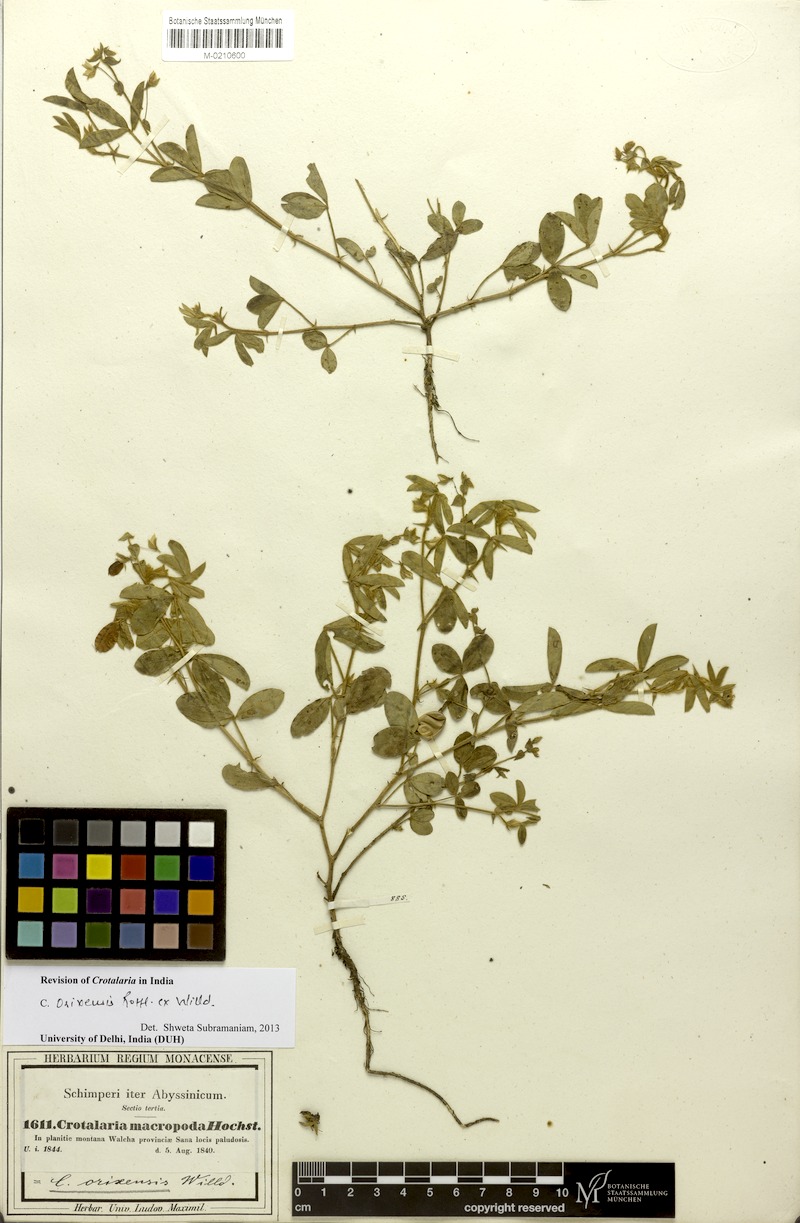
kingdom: Plantae
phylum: Tracheophyta
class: Magnoliopsida
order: Fabales
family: Fabaceae
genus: Crotalaria
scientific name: Crotalaria orixensis
